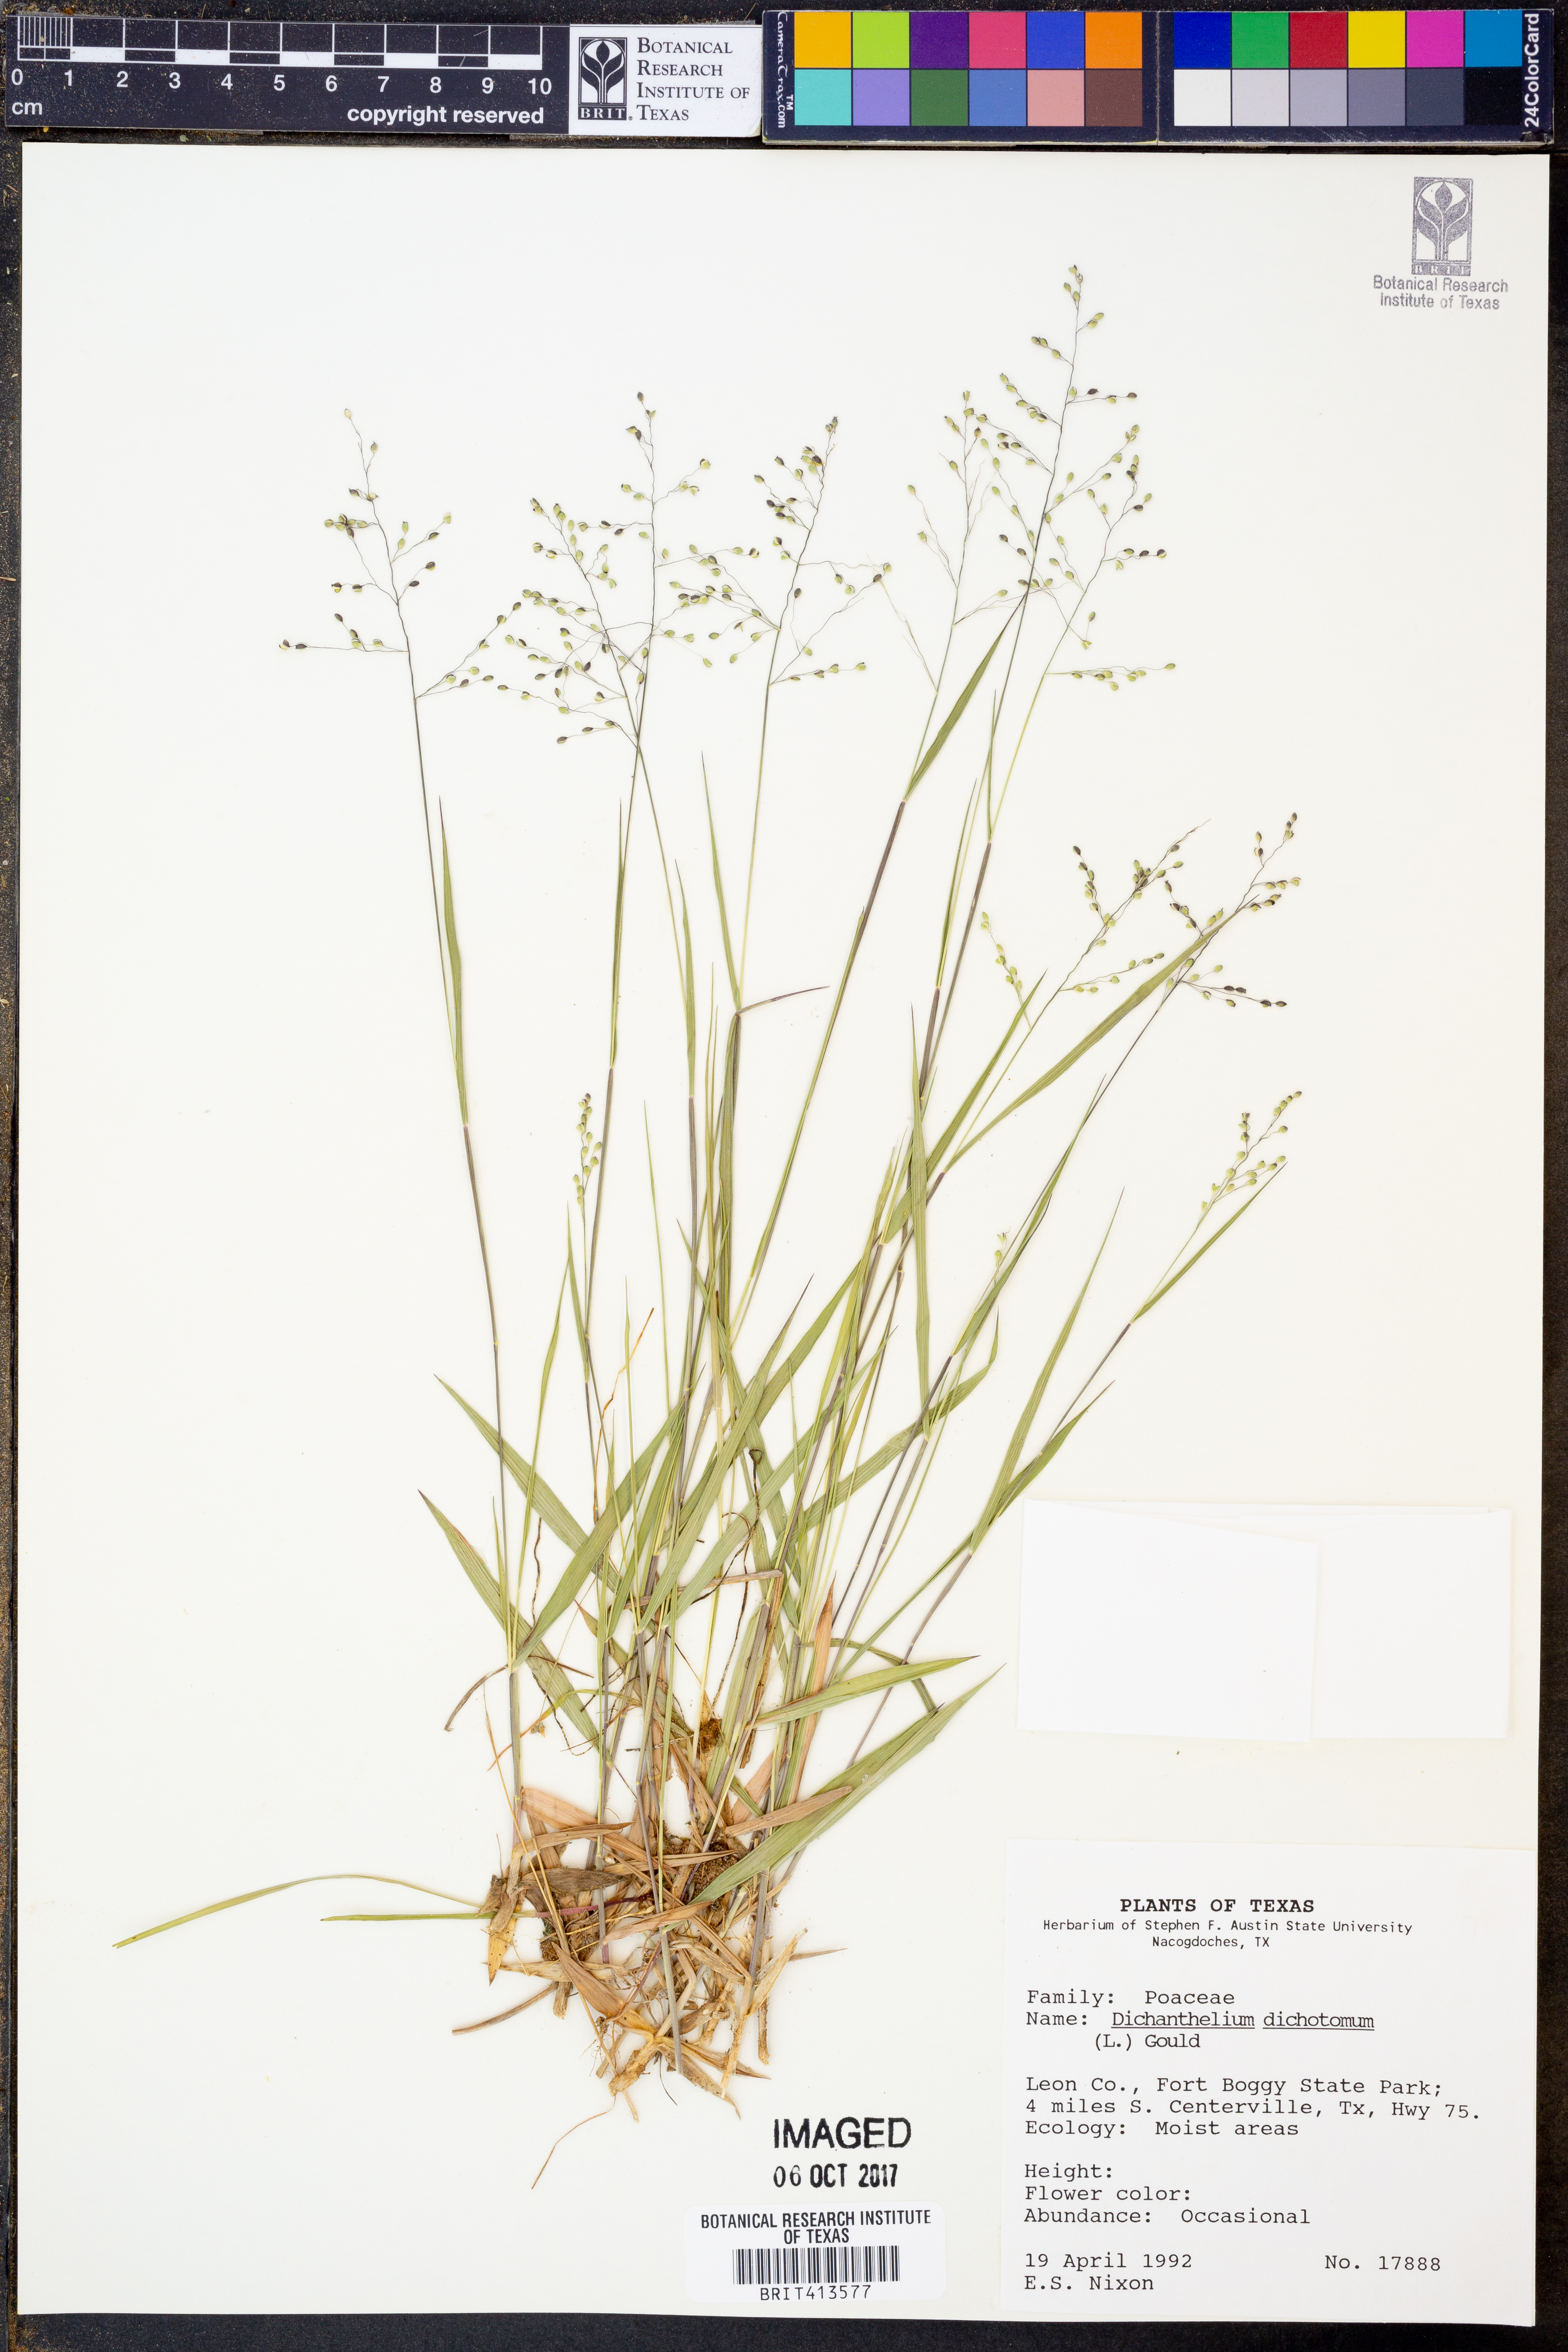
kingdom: Plantae
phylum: Tracheophyta
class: Liliopsida
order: Poales
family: Poaceae
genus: Dichanthelium
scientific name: Dichanthelium dichotomum
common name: Cypress panicgrass
